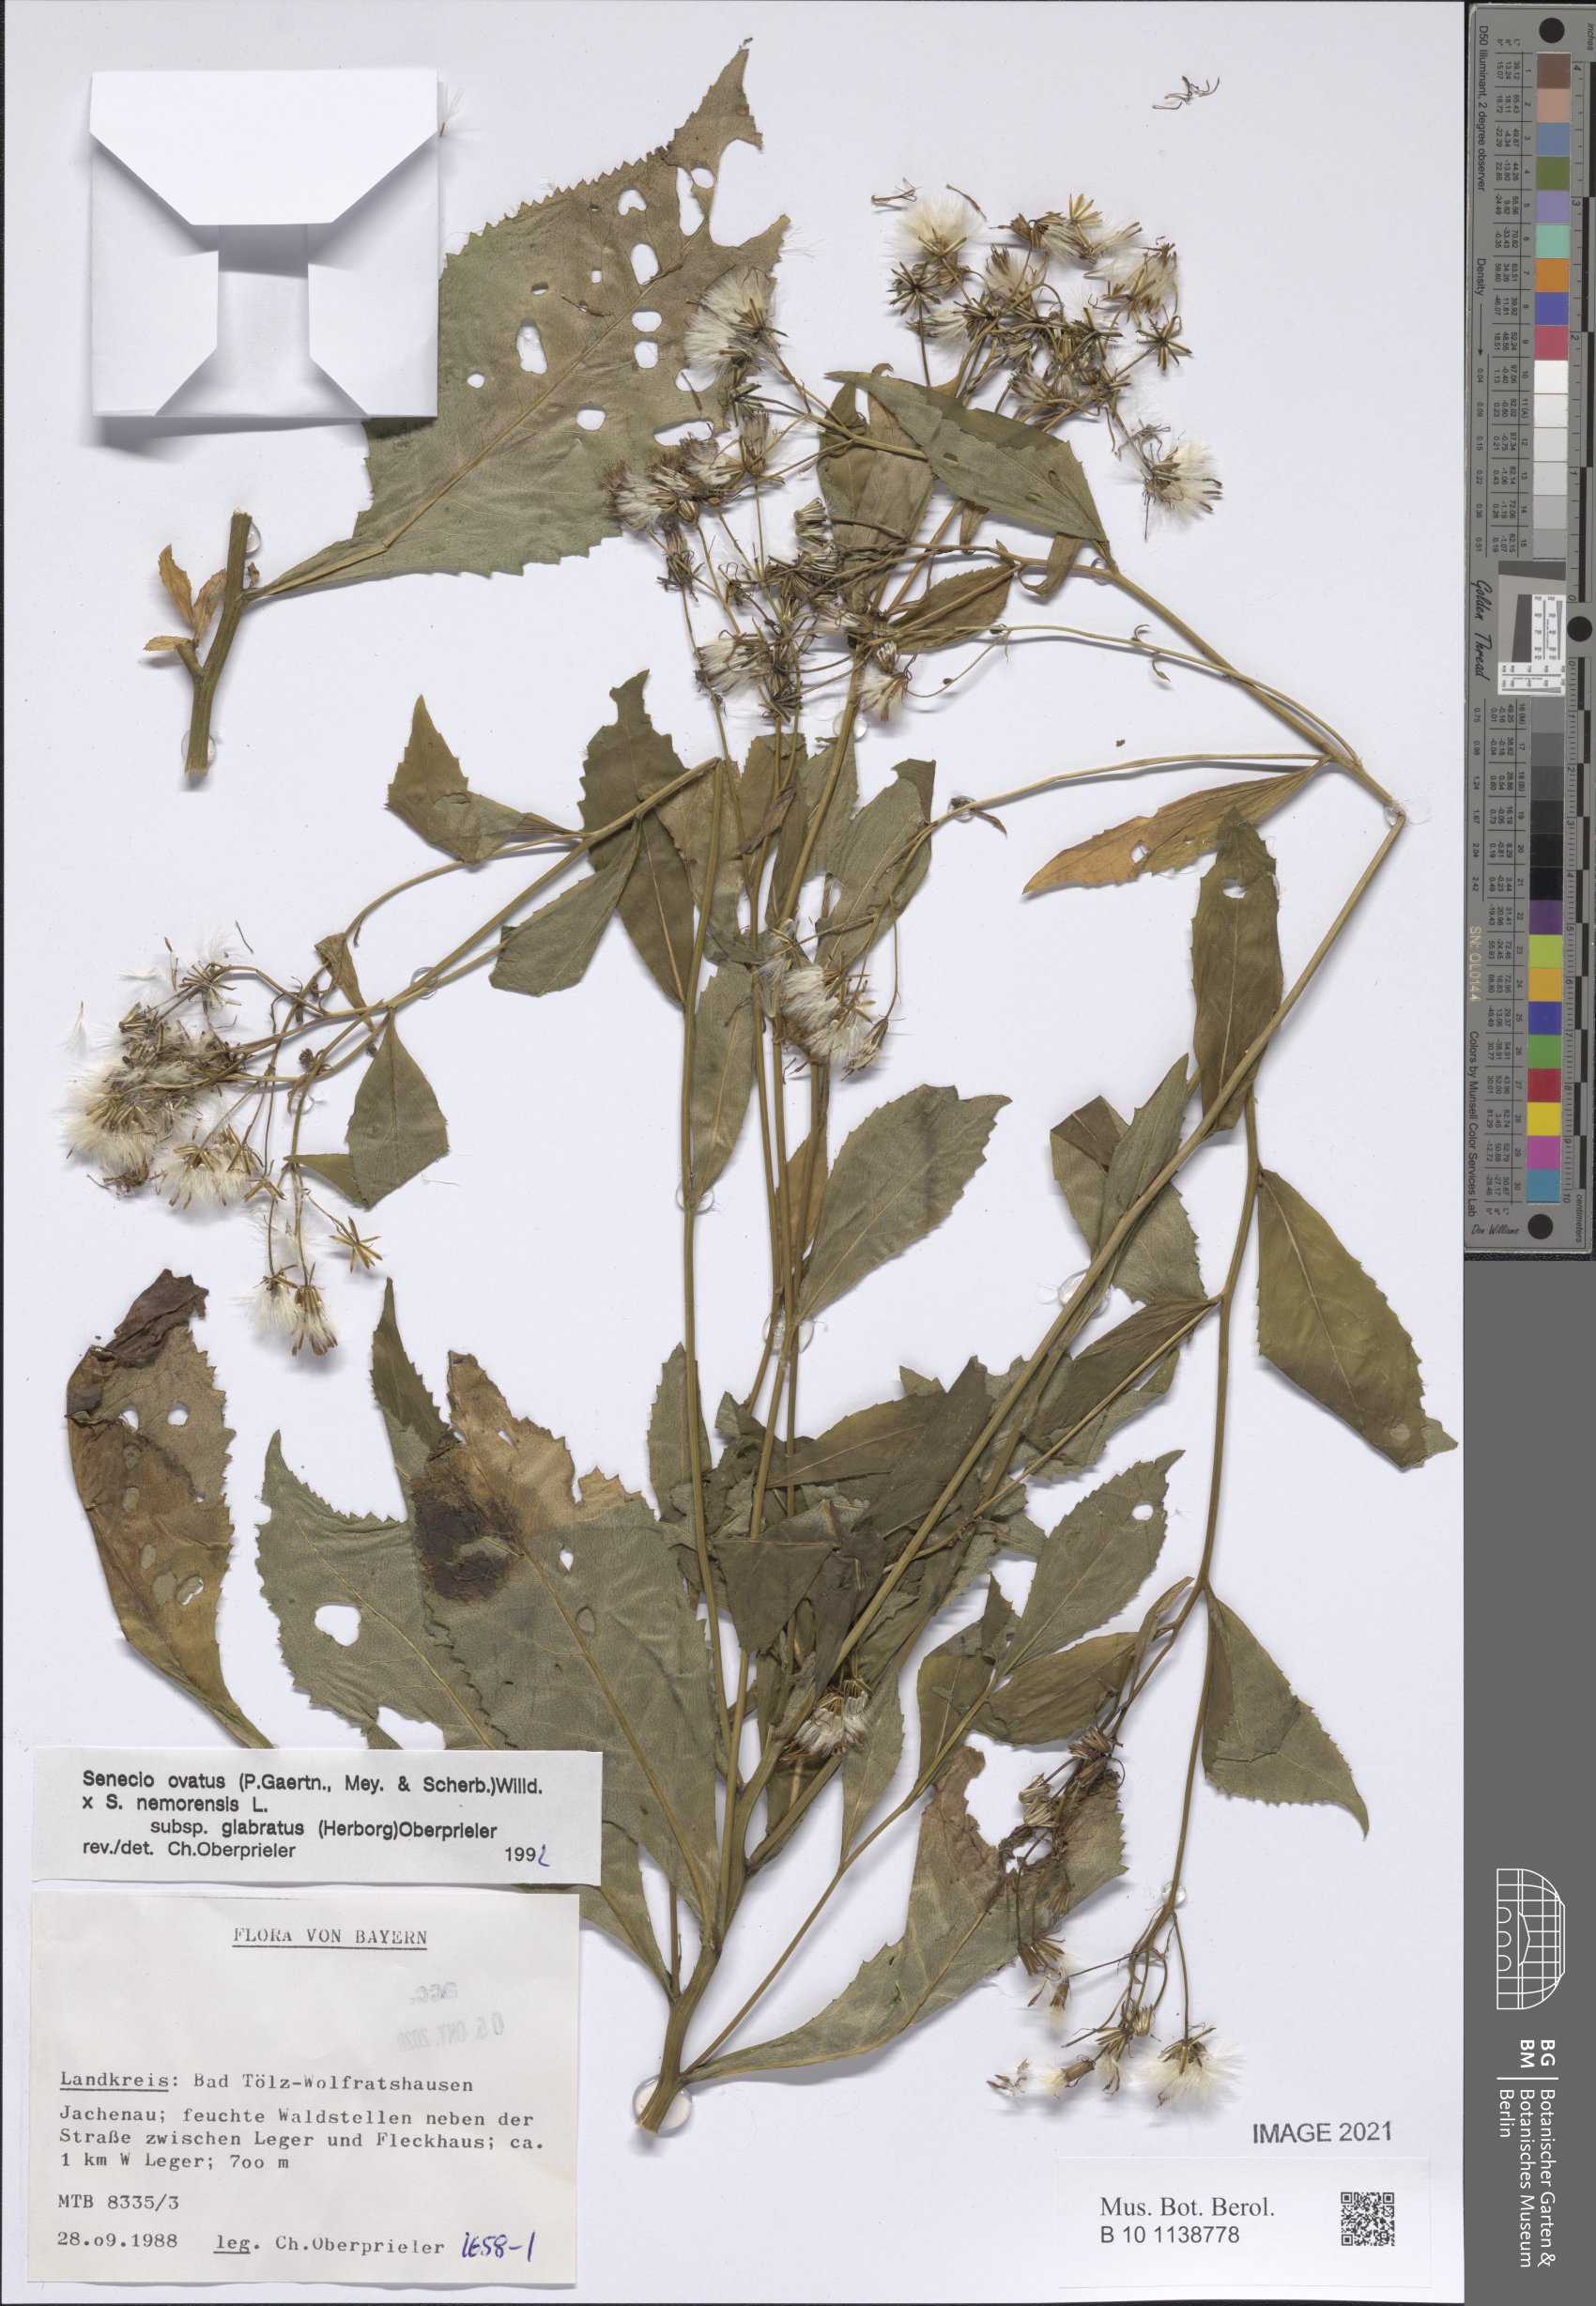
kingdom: Plantae
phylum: Tracheophyta
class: Magnoliopsida
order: Asterales
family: Asteraceae
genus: Senecio
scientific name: Senecio ovatus
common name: Wood ragwort
